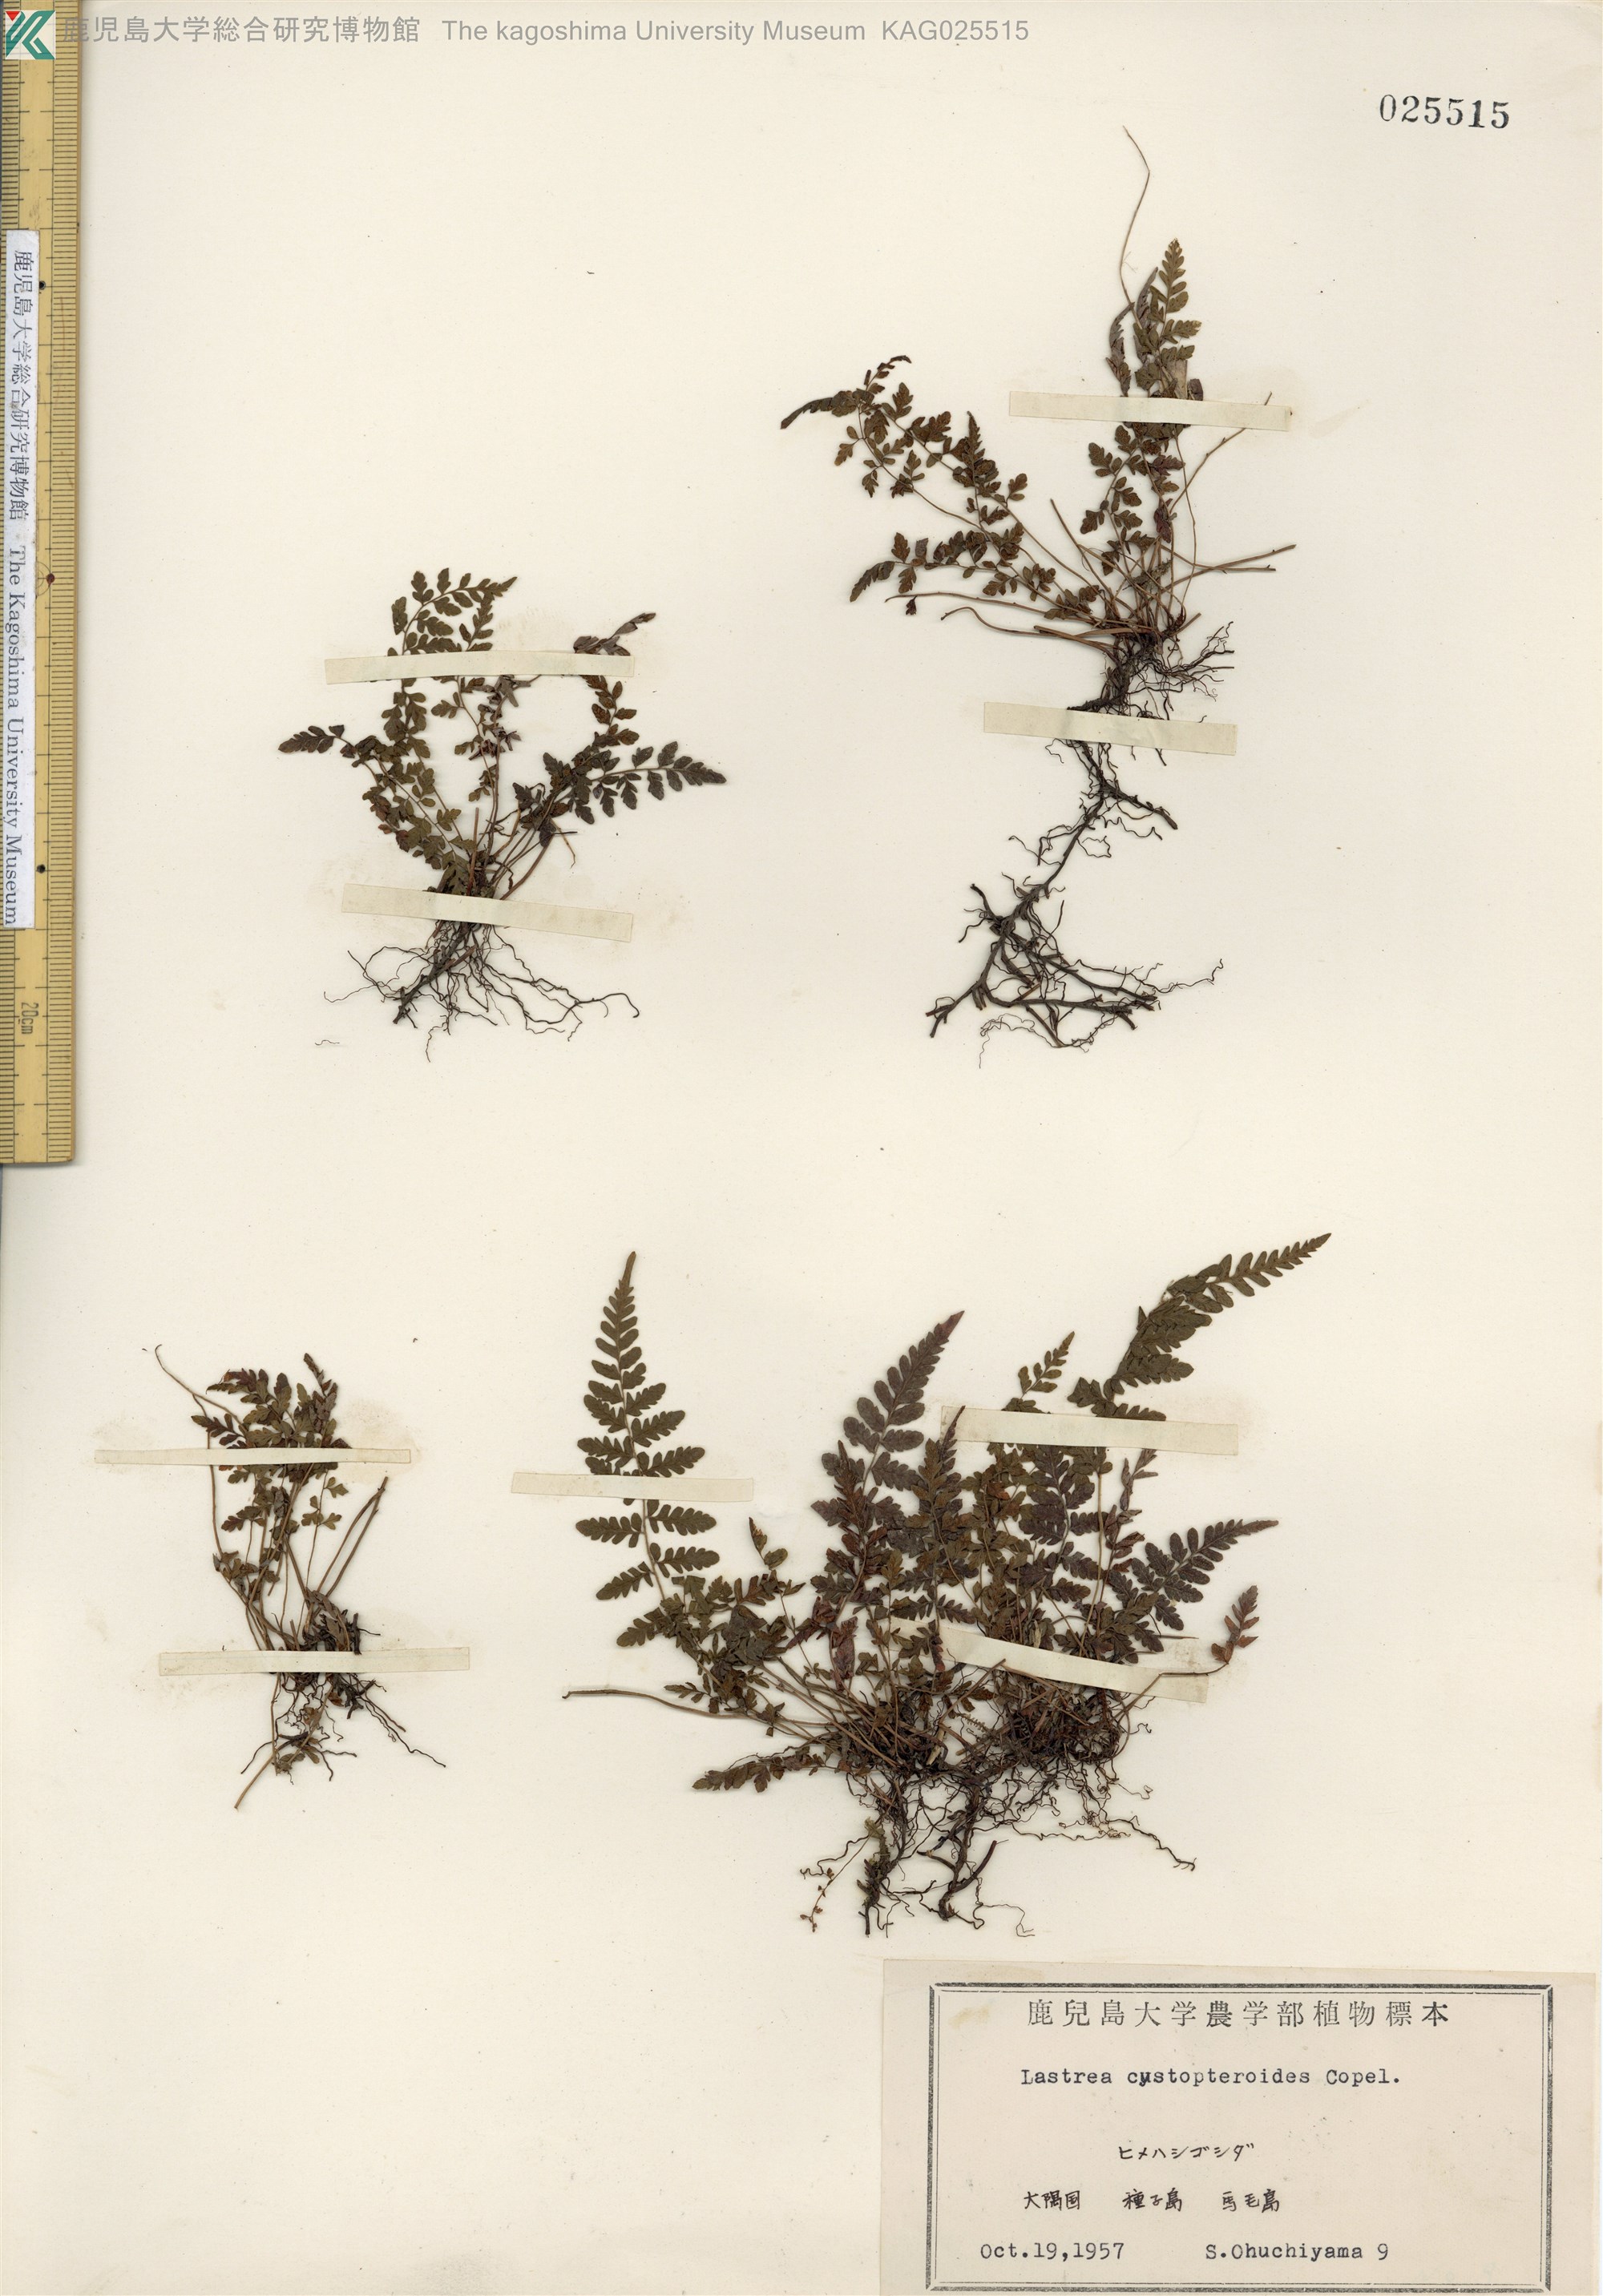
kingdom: Plantae
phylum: Tracheophyta
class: Polypodiopsida
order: Polypodiales
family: Thelypteridaceae
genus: Amauropelta
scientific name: Amauropelta cystopteroides
